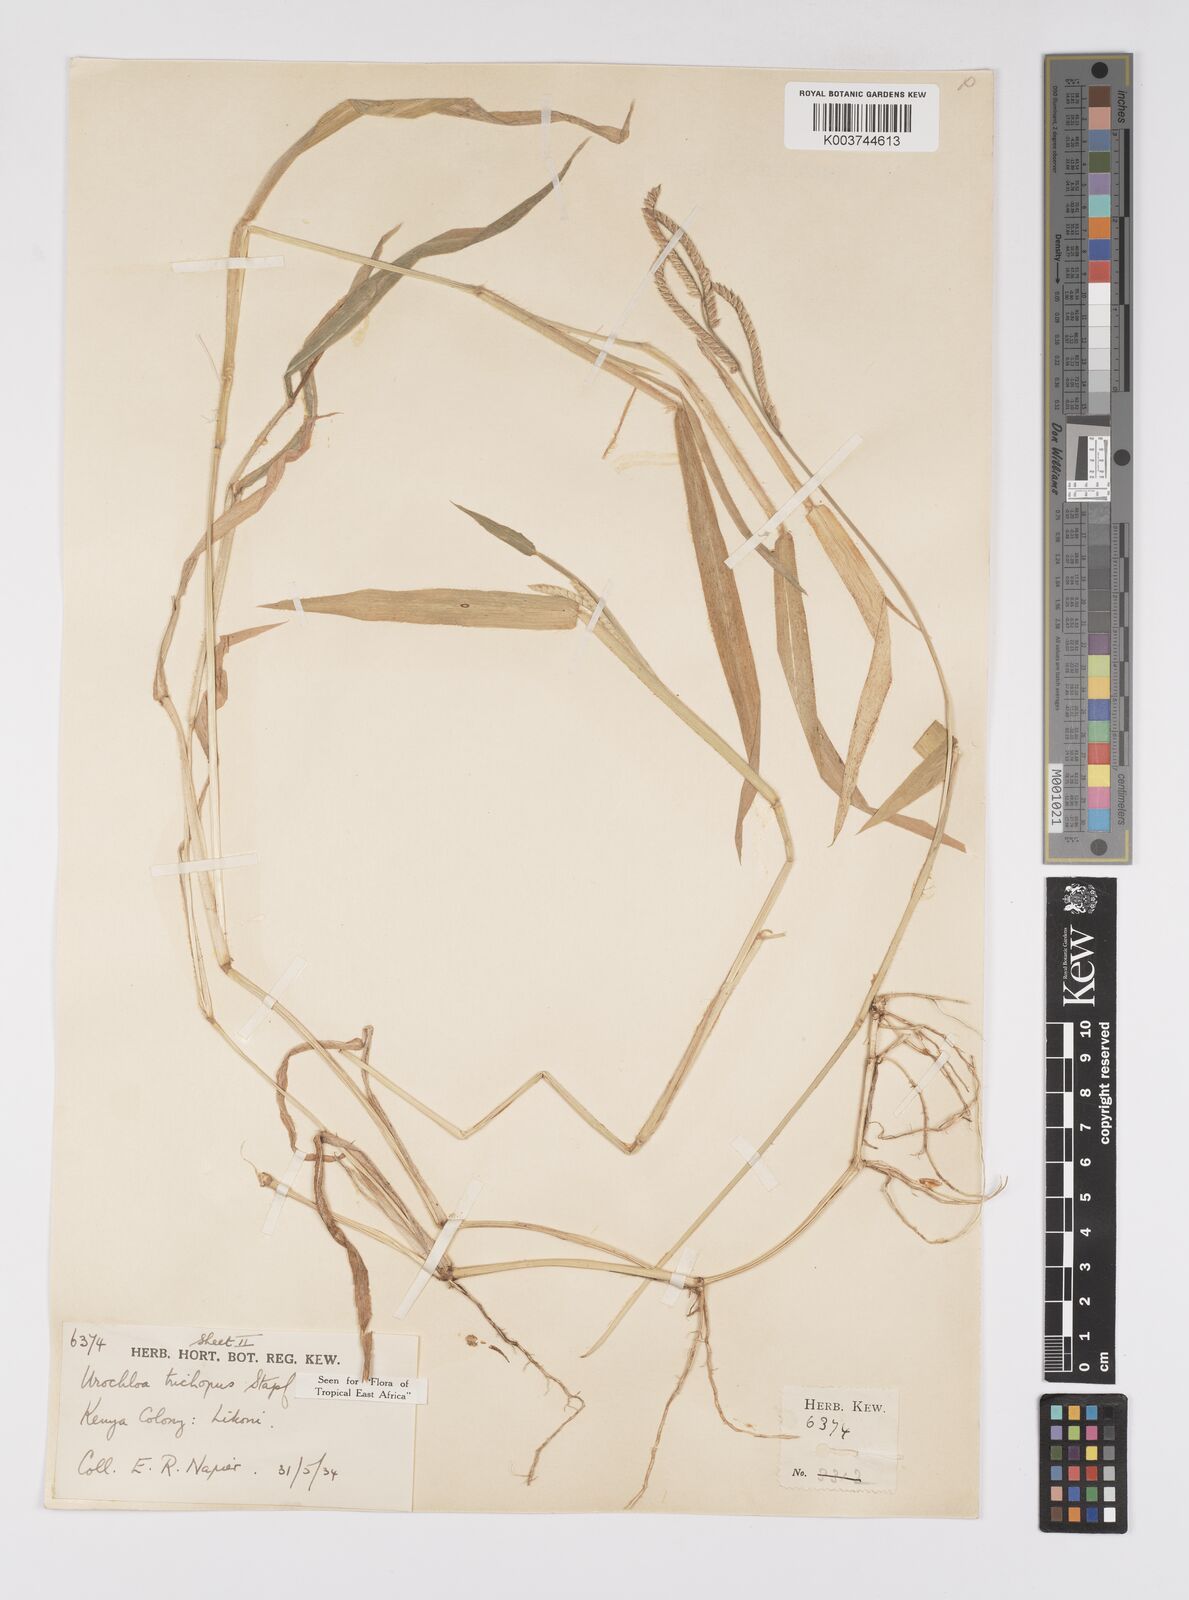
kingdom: Plantae
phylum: Tracheophyta
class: Liliopsida
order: Poales
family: Poaceae
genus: Urochloa
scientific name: Urochloa trichopus
